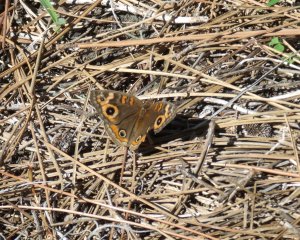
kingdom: Animalia
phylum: Arthropoda
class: Insecta
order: Lepidoptera
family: Nymphalidae
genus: Junonia
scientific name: Junonia evarete
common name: Mangrove Buckeye
